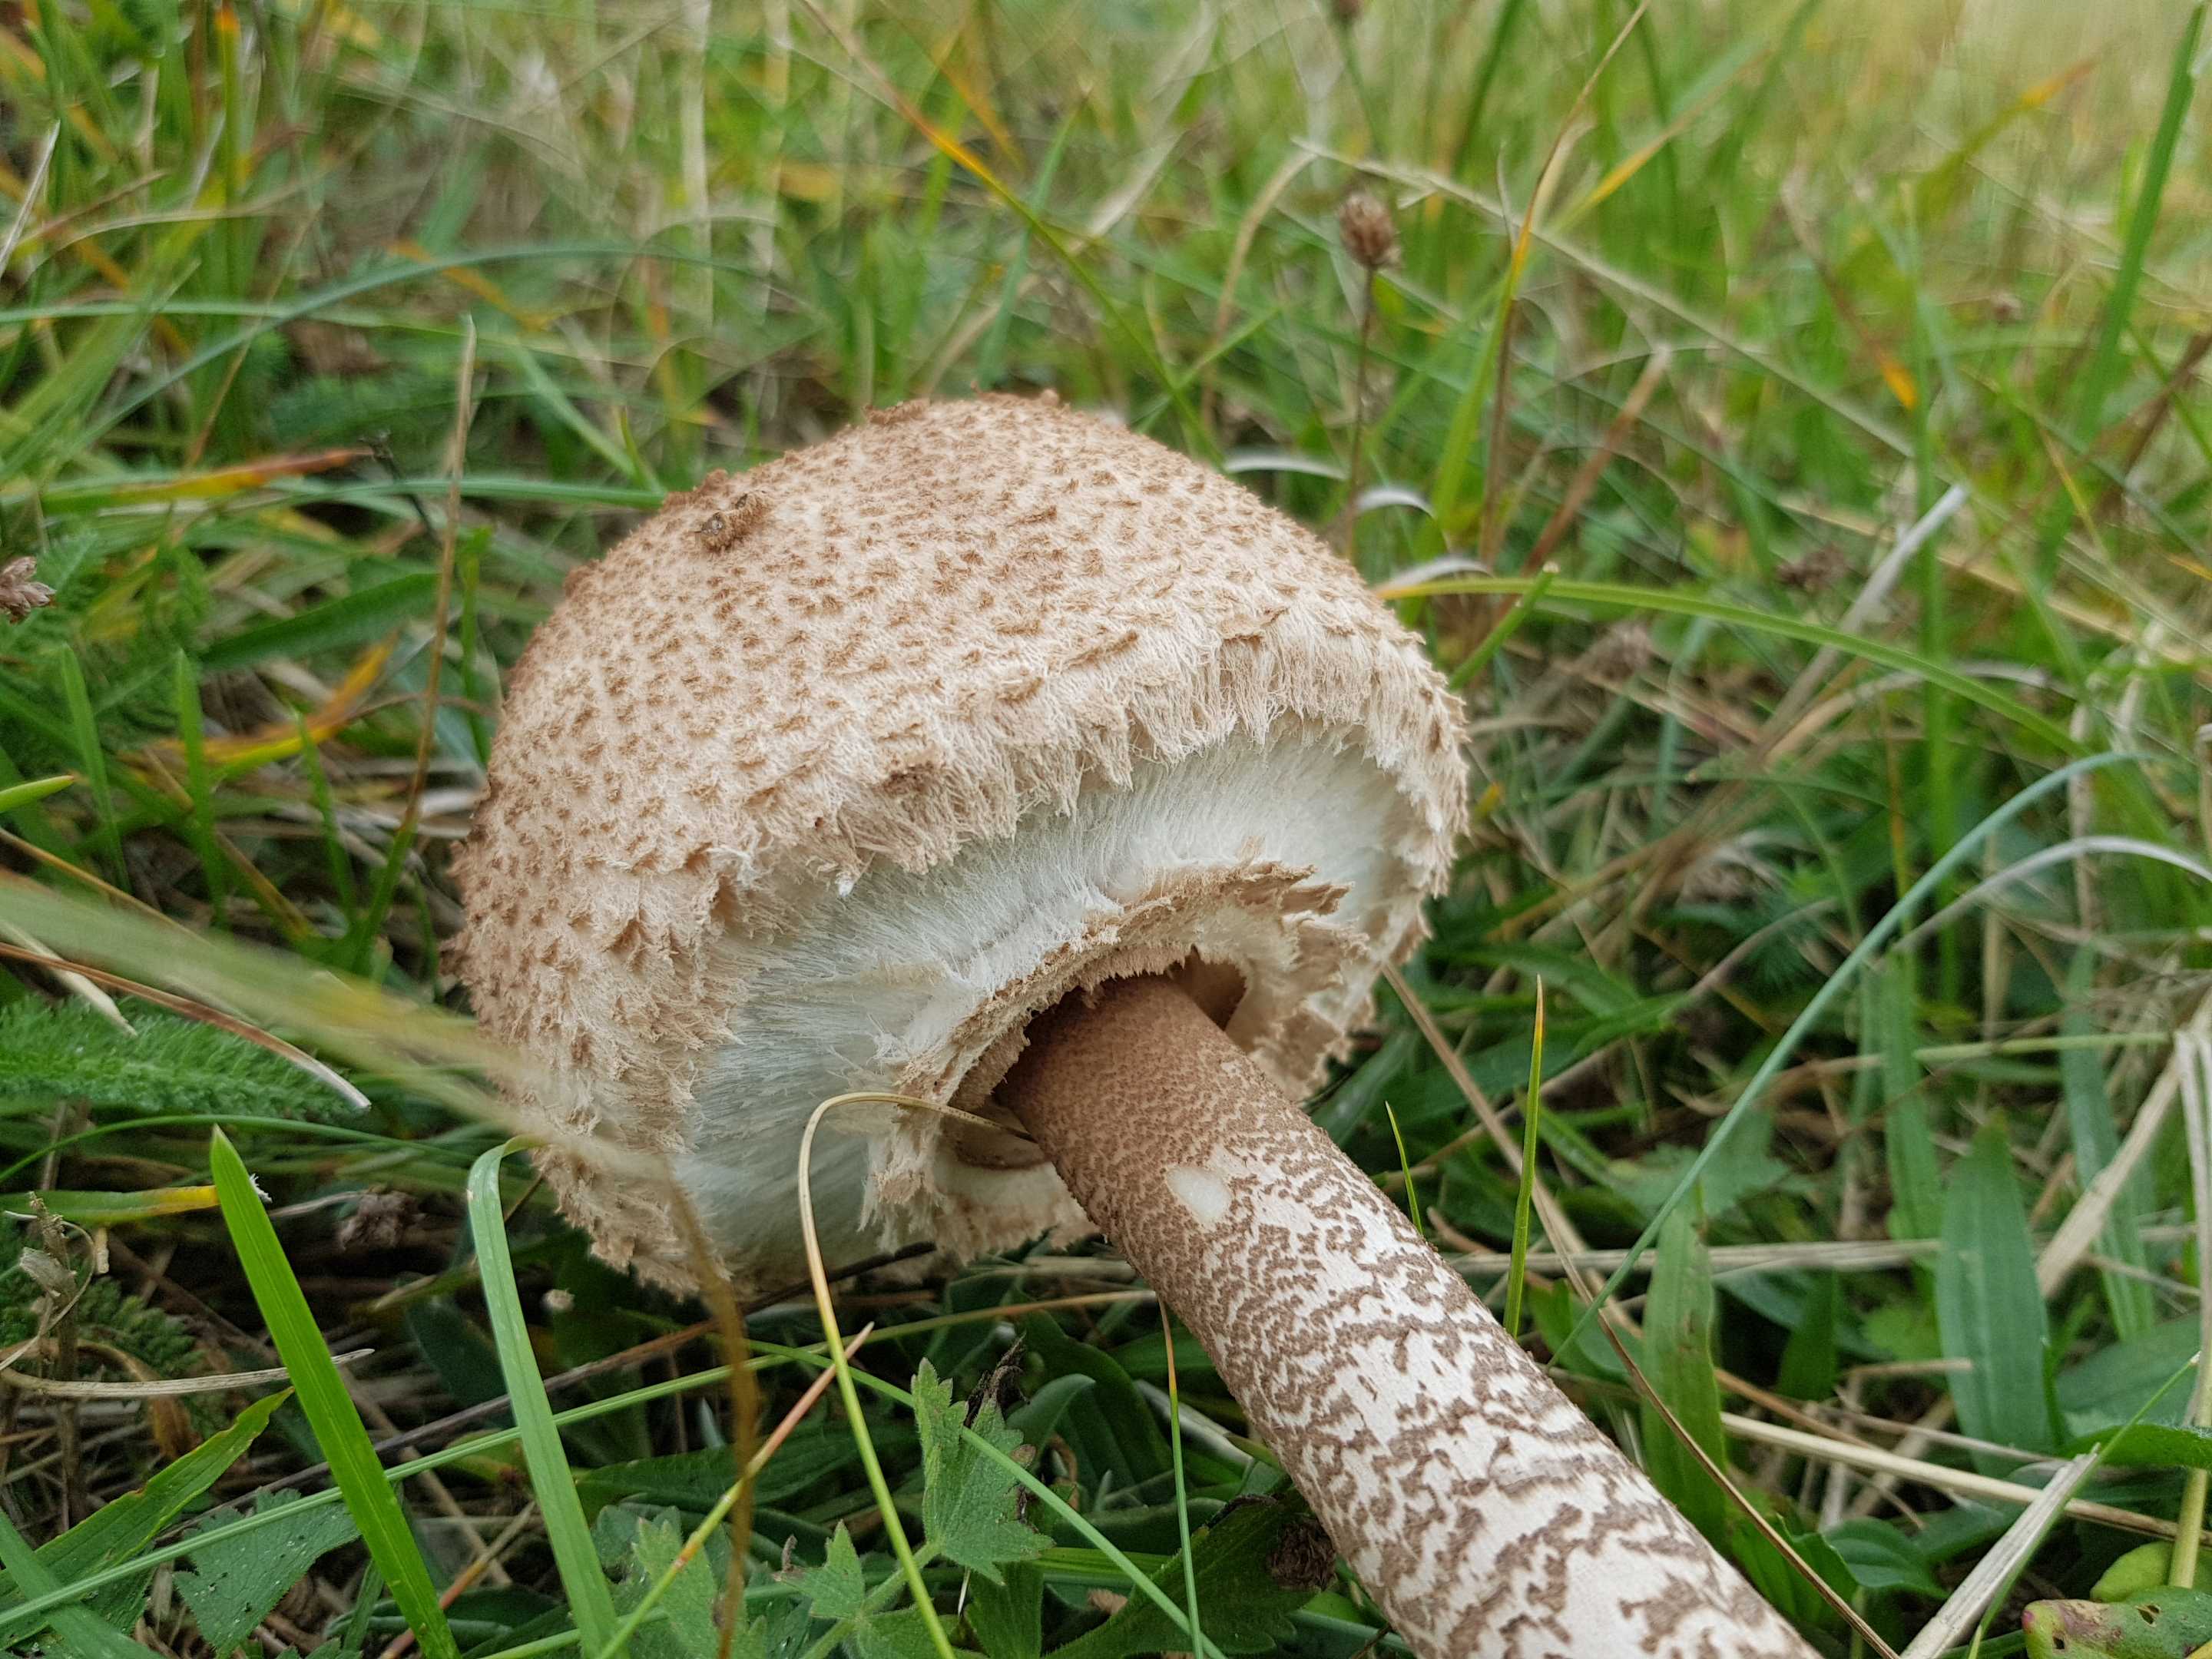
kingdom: Fungi
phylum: Basidiomycota
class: Agaricomycetes
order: Agaricales
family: Agaricaceae
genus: Macrolepiota
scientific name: Macrolepiota procera
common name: stor kæmpeparasolhat
